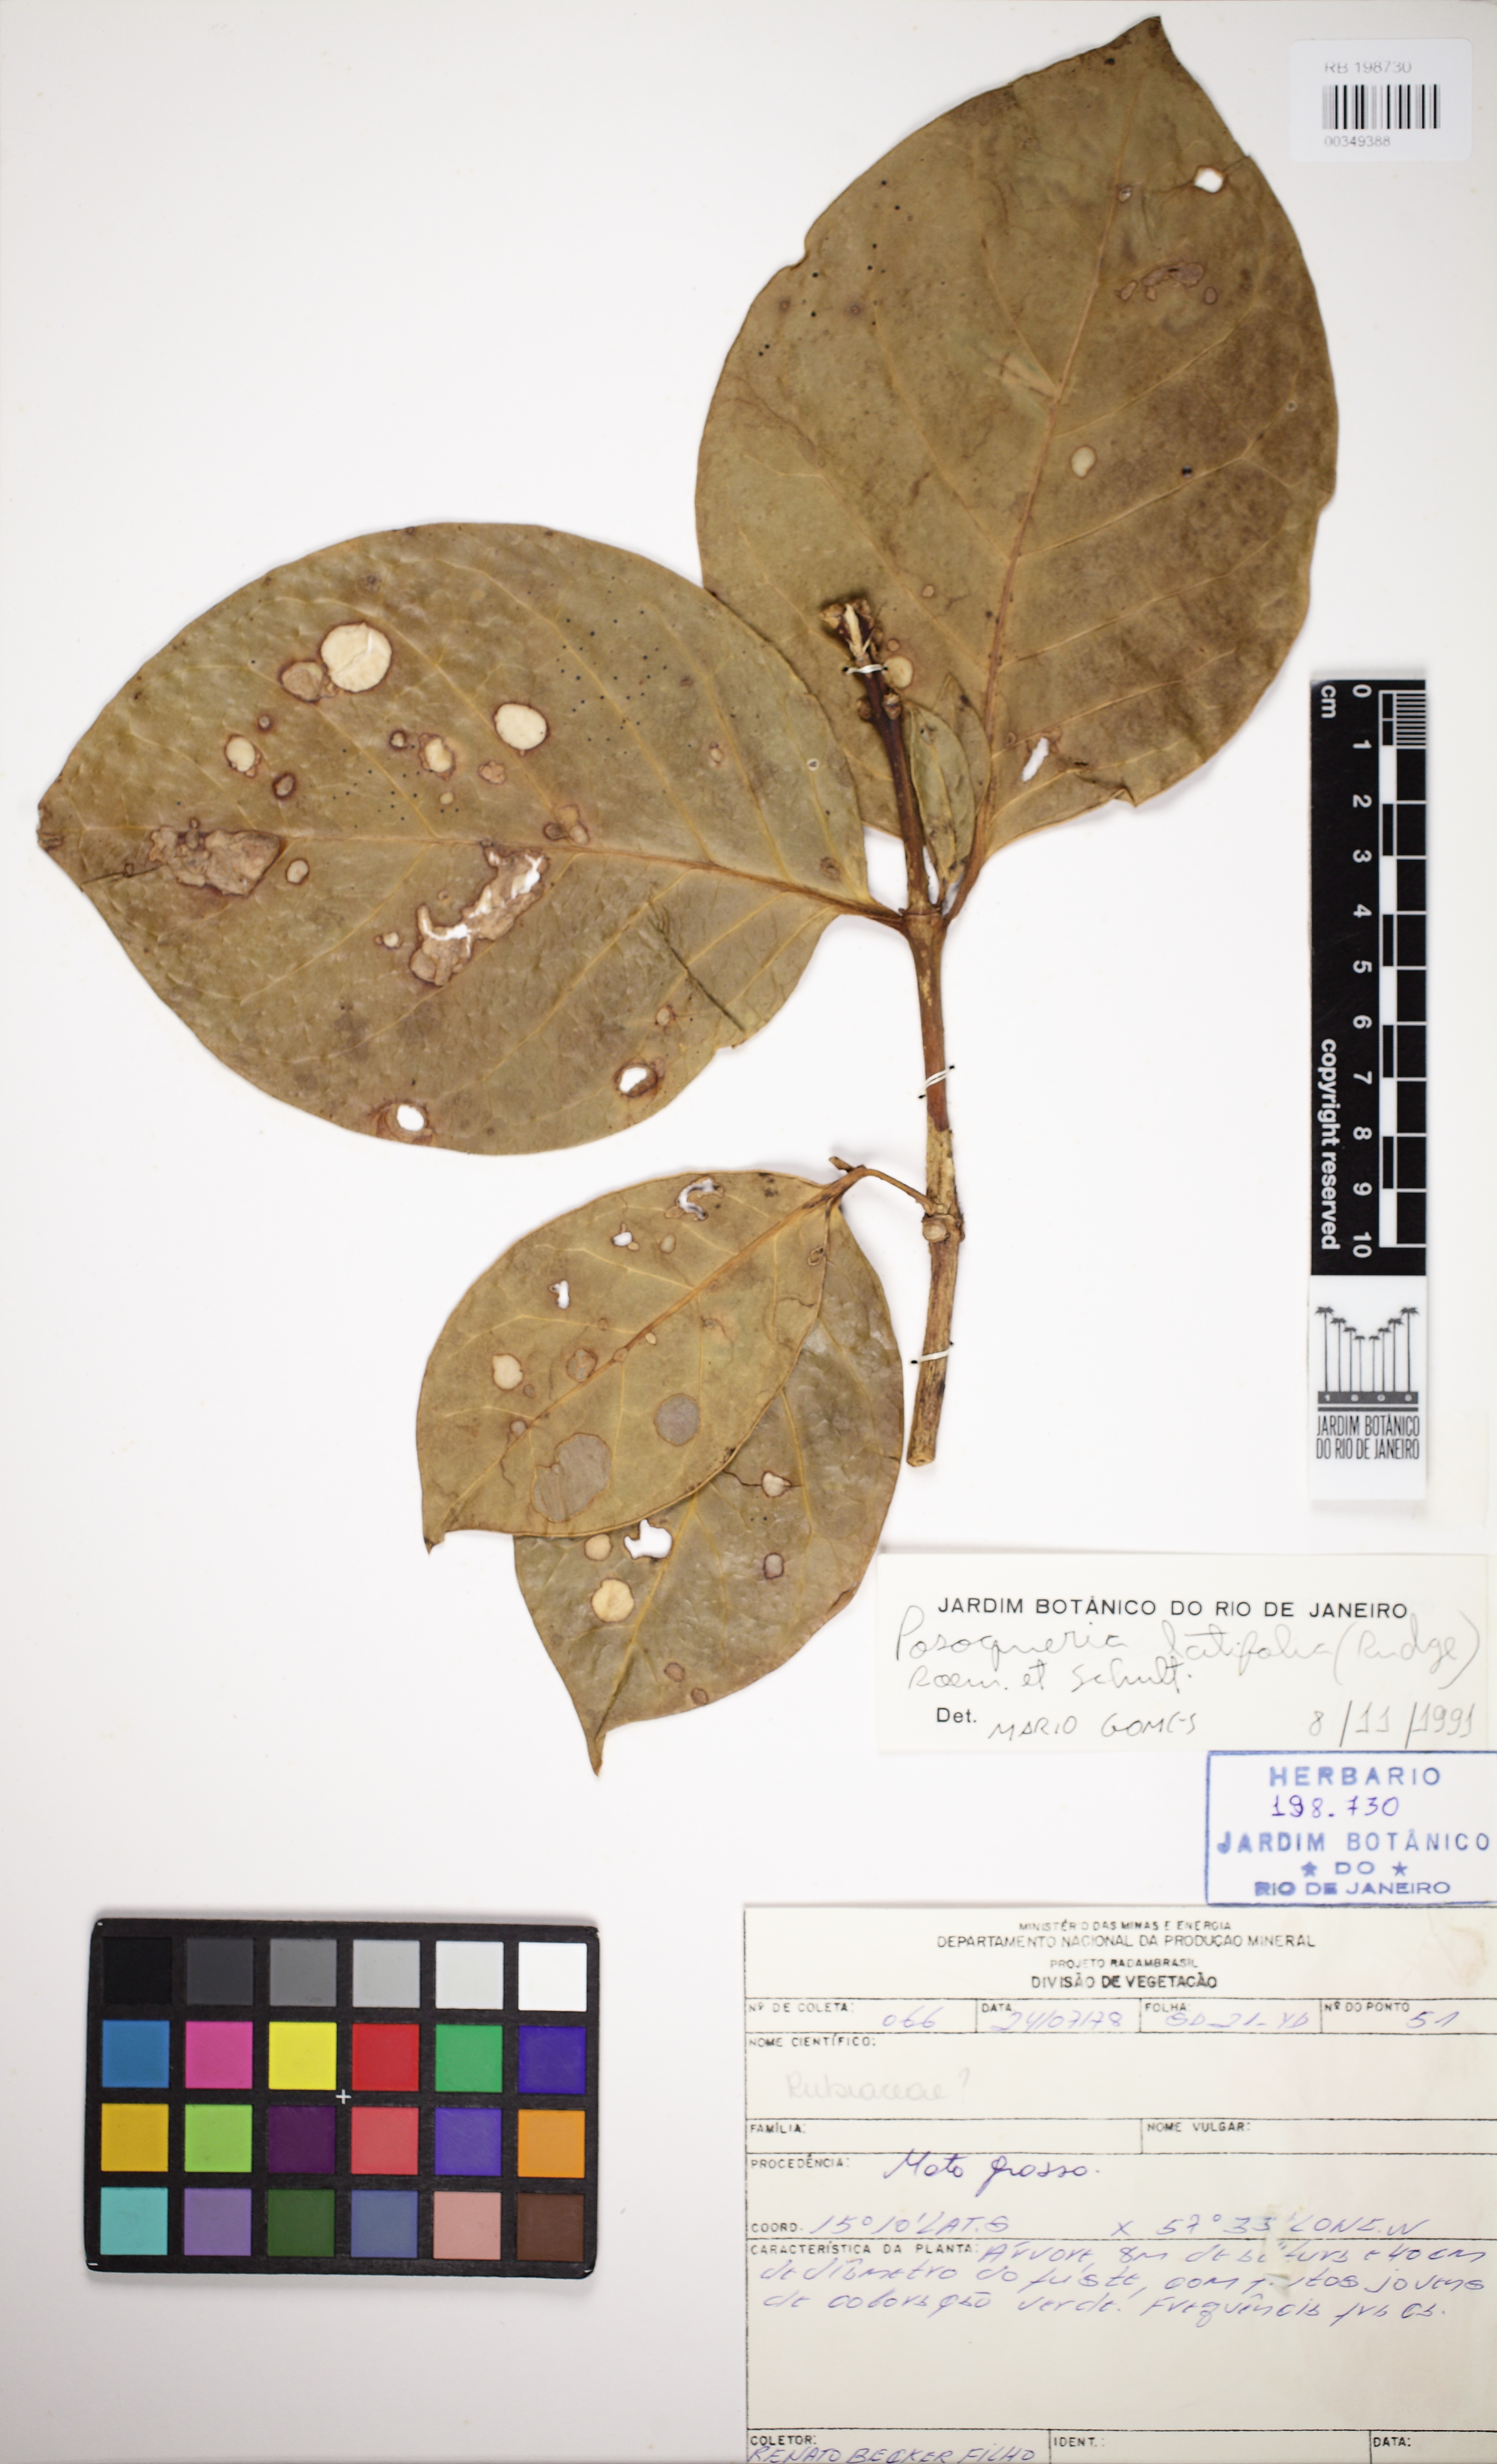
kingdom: Plantae
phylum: Tracheophyta
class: Magnoliopsida
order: Gentianales
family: Rubiaceae
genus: Posoqueria
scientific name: Posoqueria latifolia
